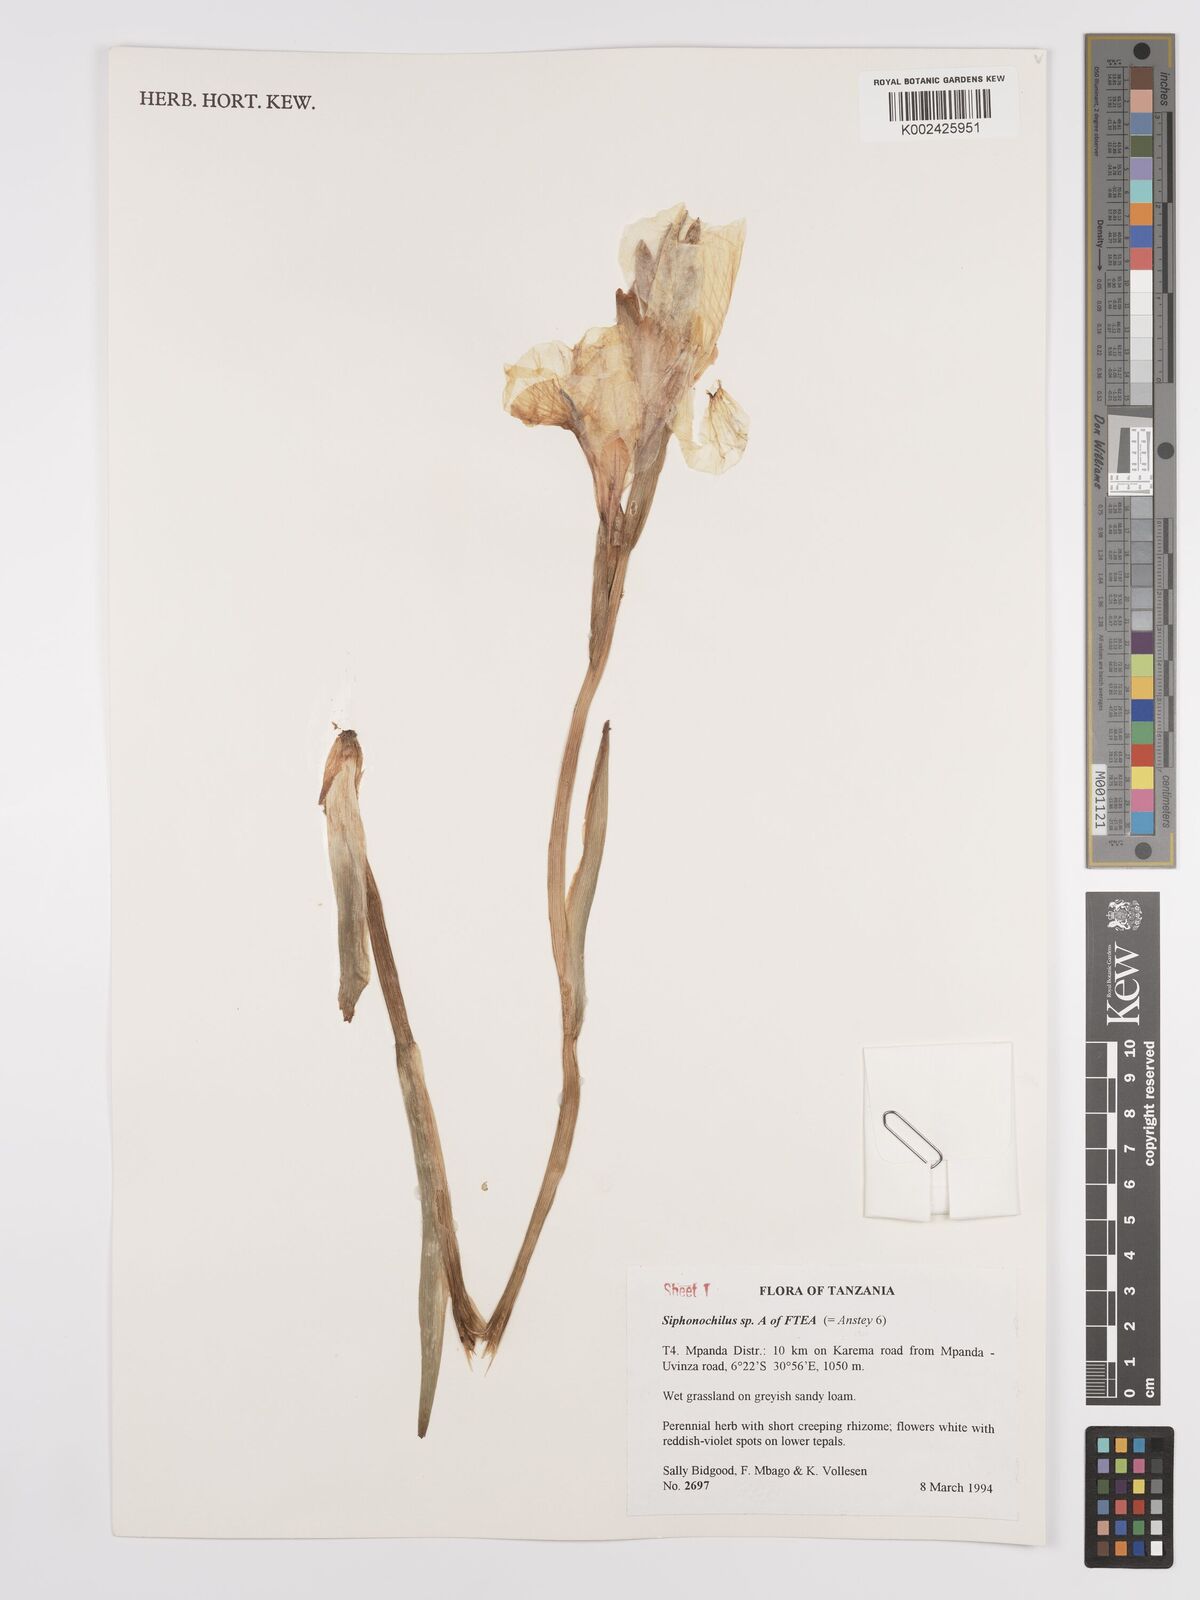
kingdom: Plantae
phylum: Tracheophyta
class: Liliopsida
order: Zingiberales
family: Zingiberaceae
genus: Siphonochilus
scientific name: Siphonochilus
